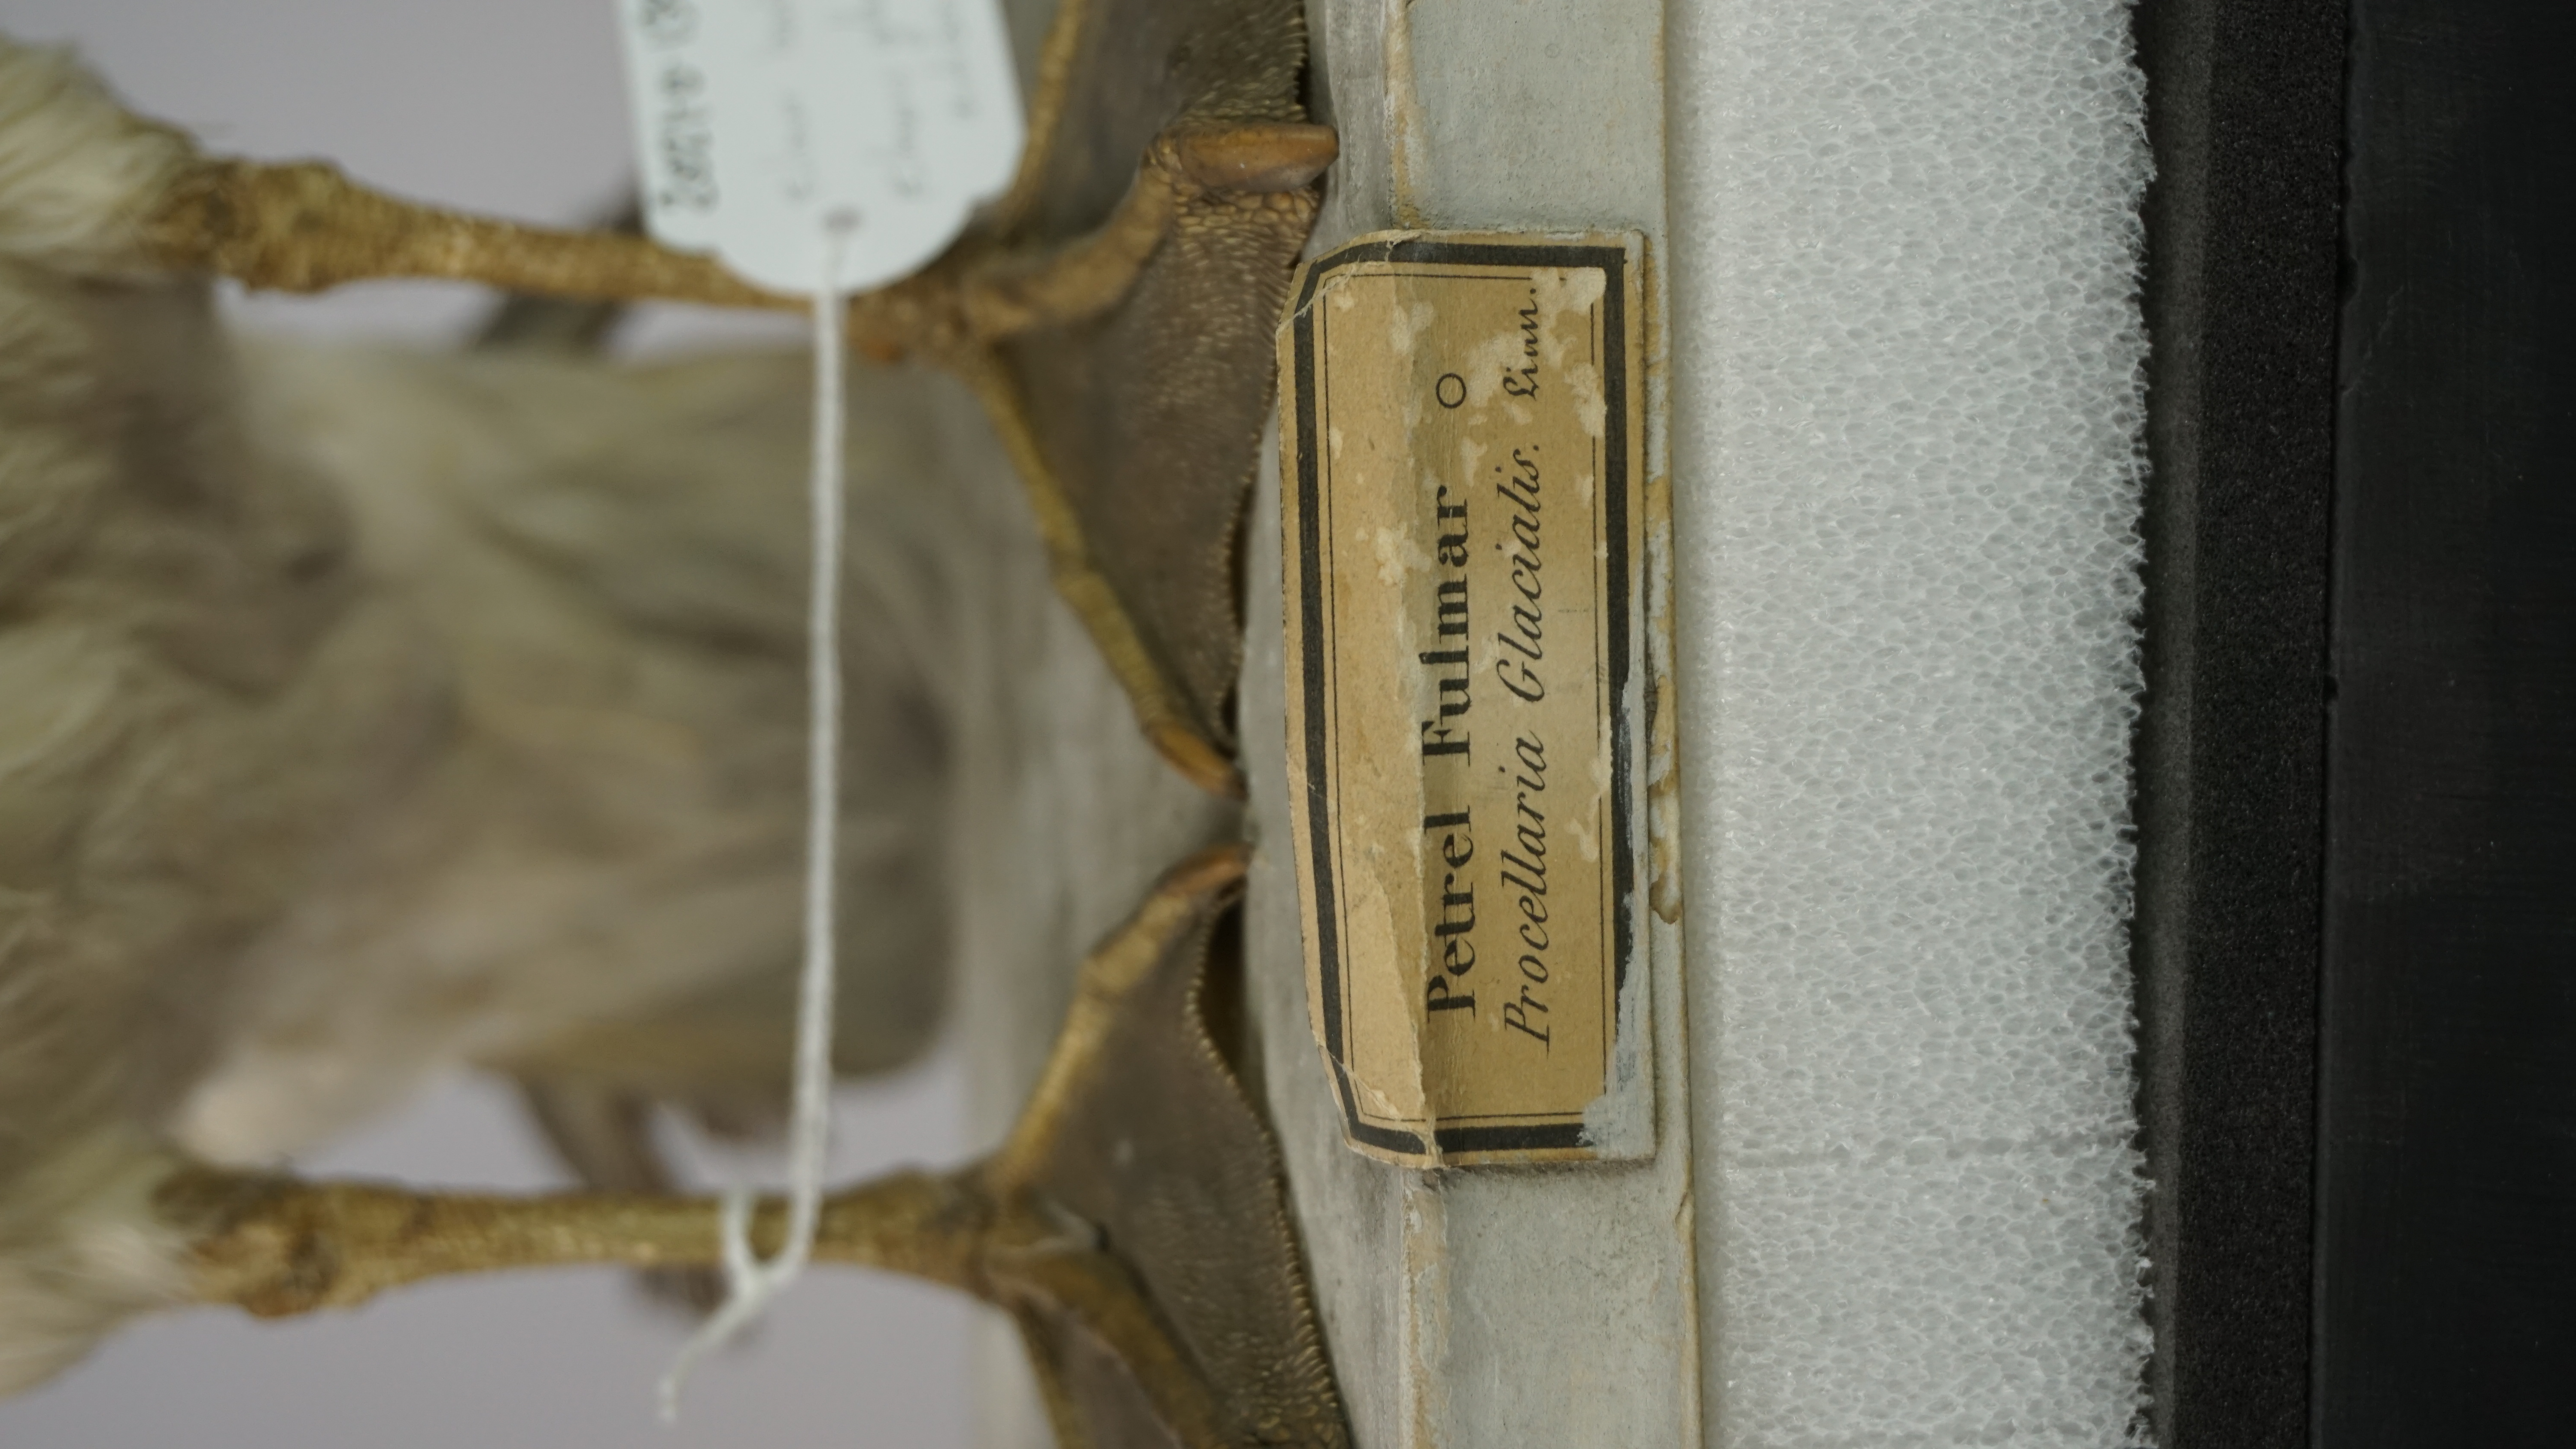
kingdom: Animalia
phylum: Chordata
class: Aves
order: Procellariiformes
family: Procellariidae
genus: Fulmarus
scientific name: Fulmarus glacialis
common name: Northern fulmar
